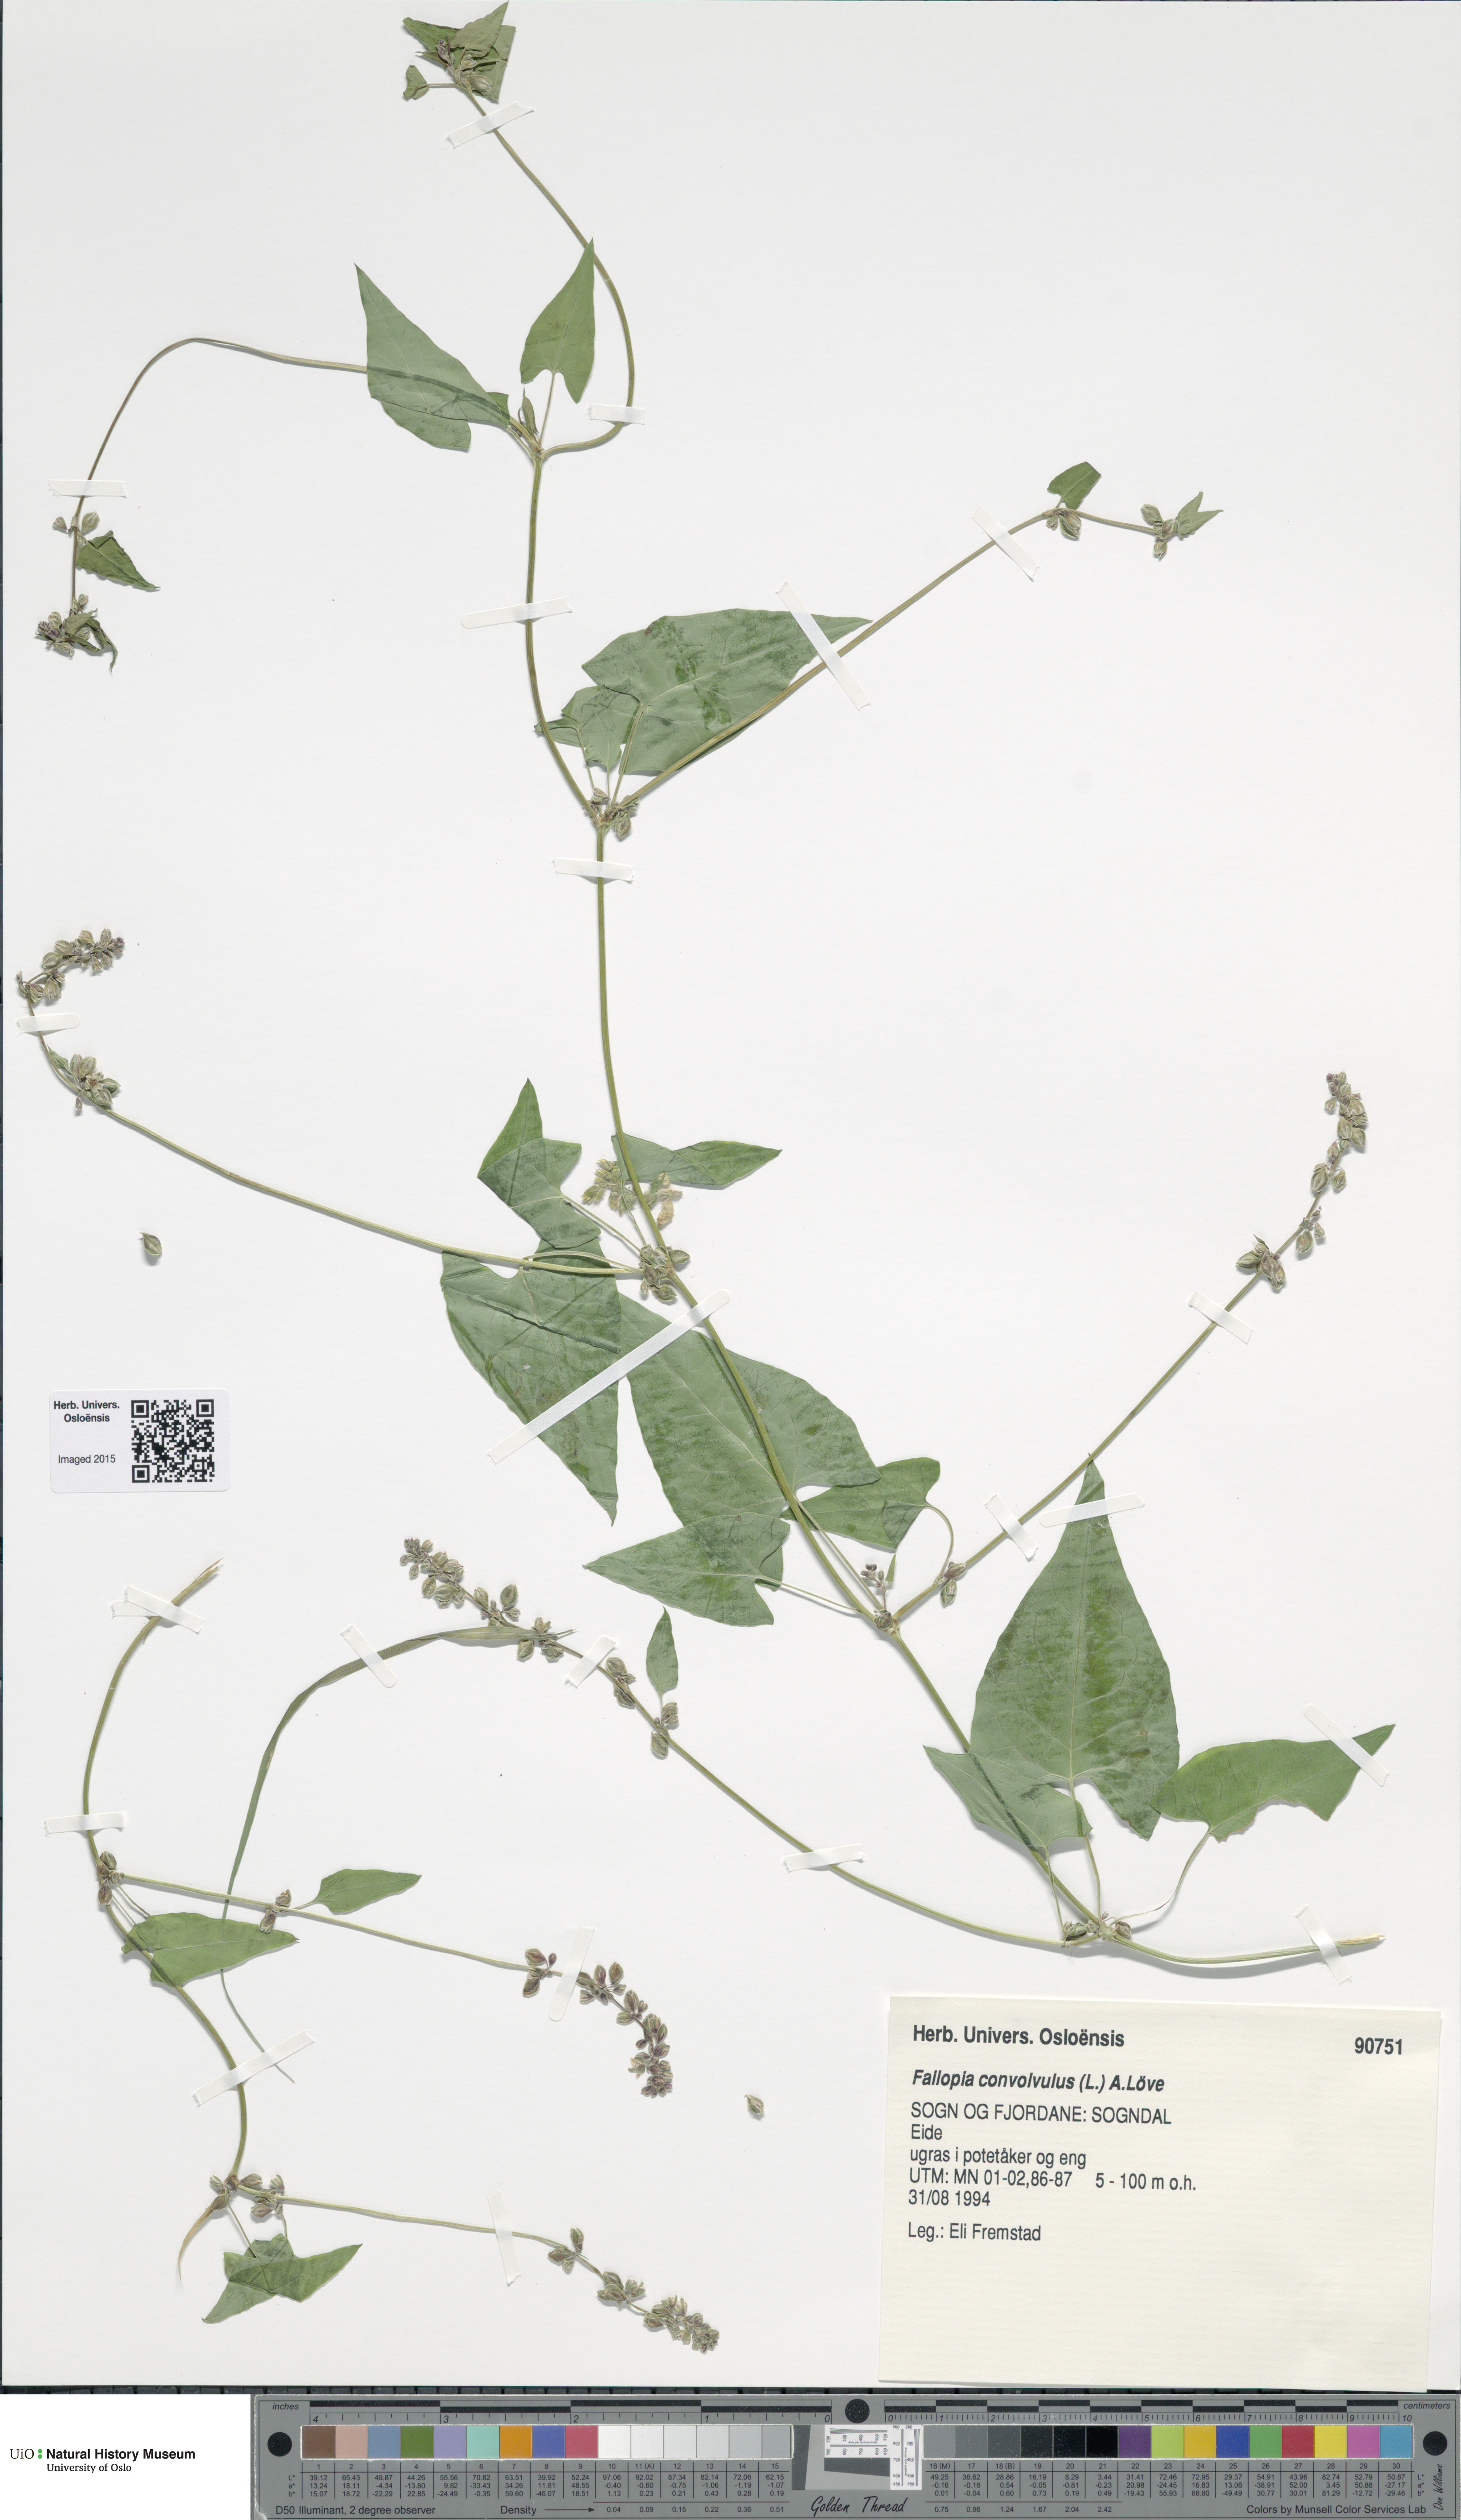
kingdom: Plantae
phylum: Tracheophyta
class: Magnoliopsida
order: Caryophyllales
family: Polygonaceae
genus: Fallopia
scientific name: Fallopia convolvulus
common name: Black bindweed
